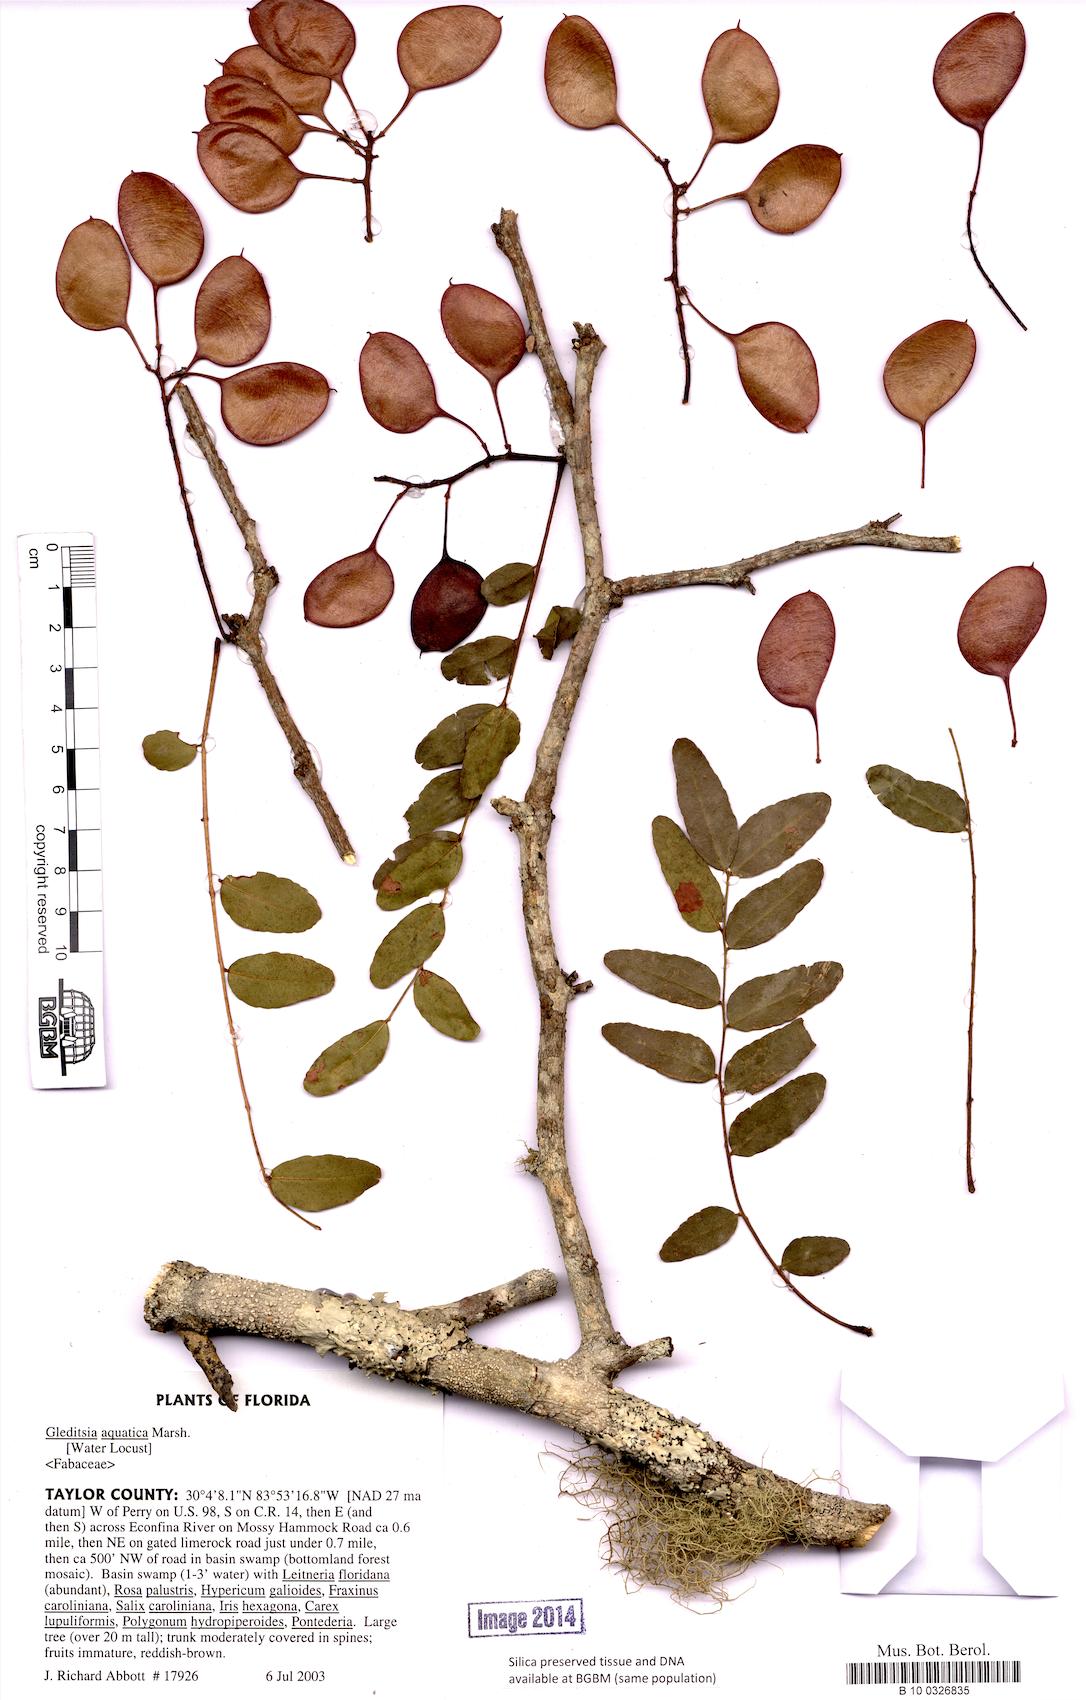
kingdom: Plantae
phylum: Tracheophyta
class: Magnoliopsida
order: Fabales
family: Fabaceae
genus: Gleditsia
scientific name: Gleditsia aquatica
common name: Swamp-locust
